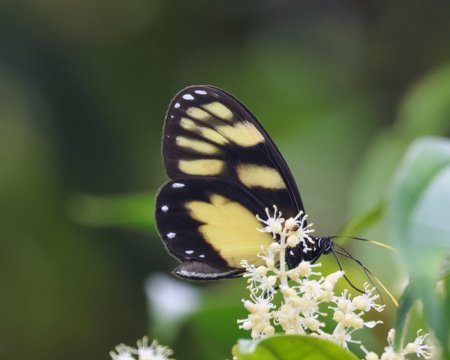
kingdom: Animalia
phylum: Arthropoda
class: Insecta
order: Lepidoptera
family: Nymphalidae
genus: Godyris
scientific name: Godyris zavaleta
